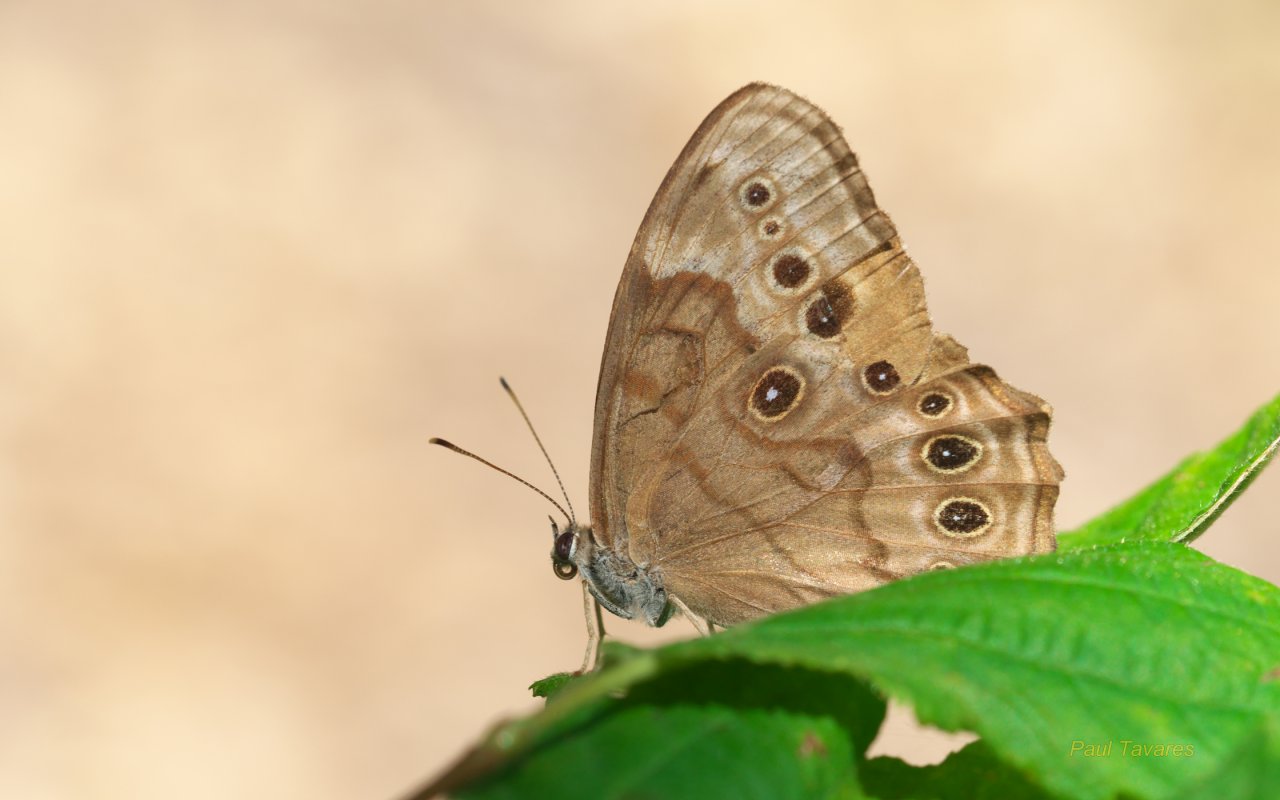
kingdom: Animalia
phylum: Arthropoda
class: Insecta
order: Lepidoptera
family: Nymphalidae
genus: Lethe
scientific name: Lethe anthedon
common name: Northern Pearly-Eye
